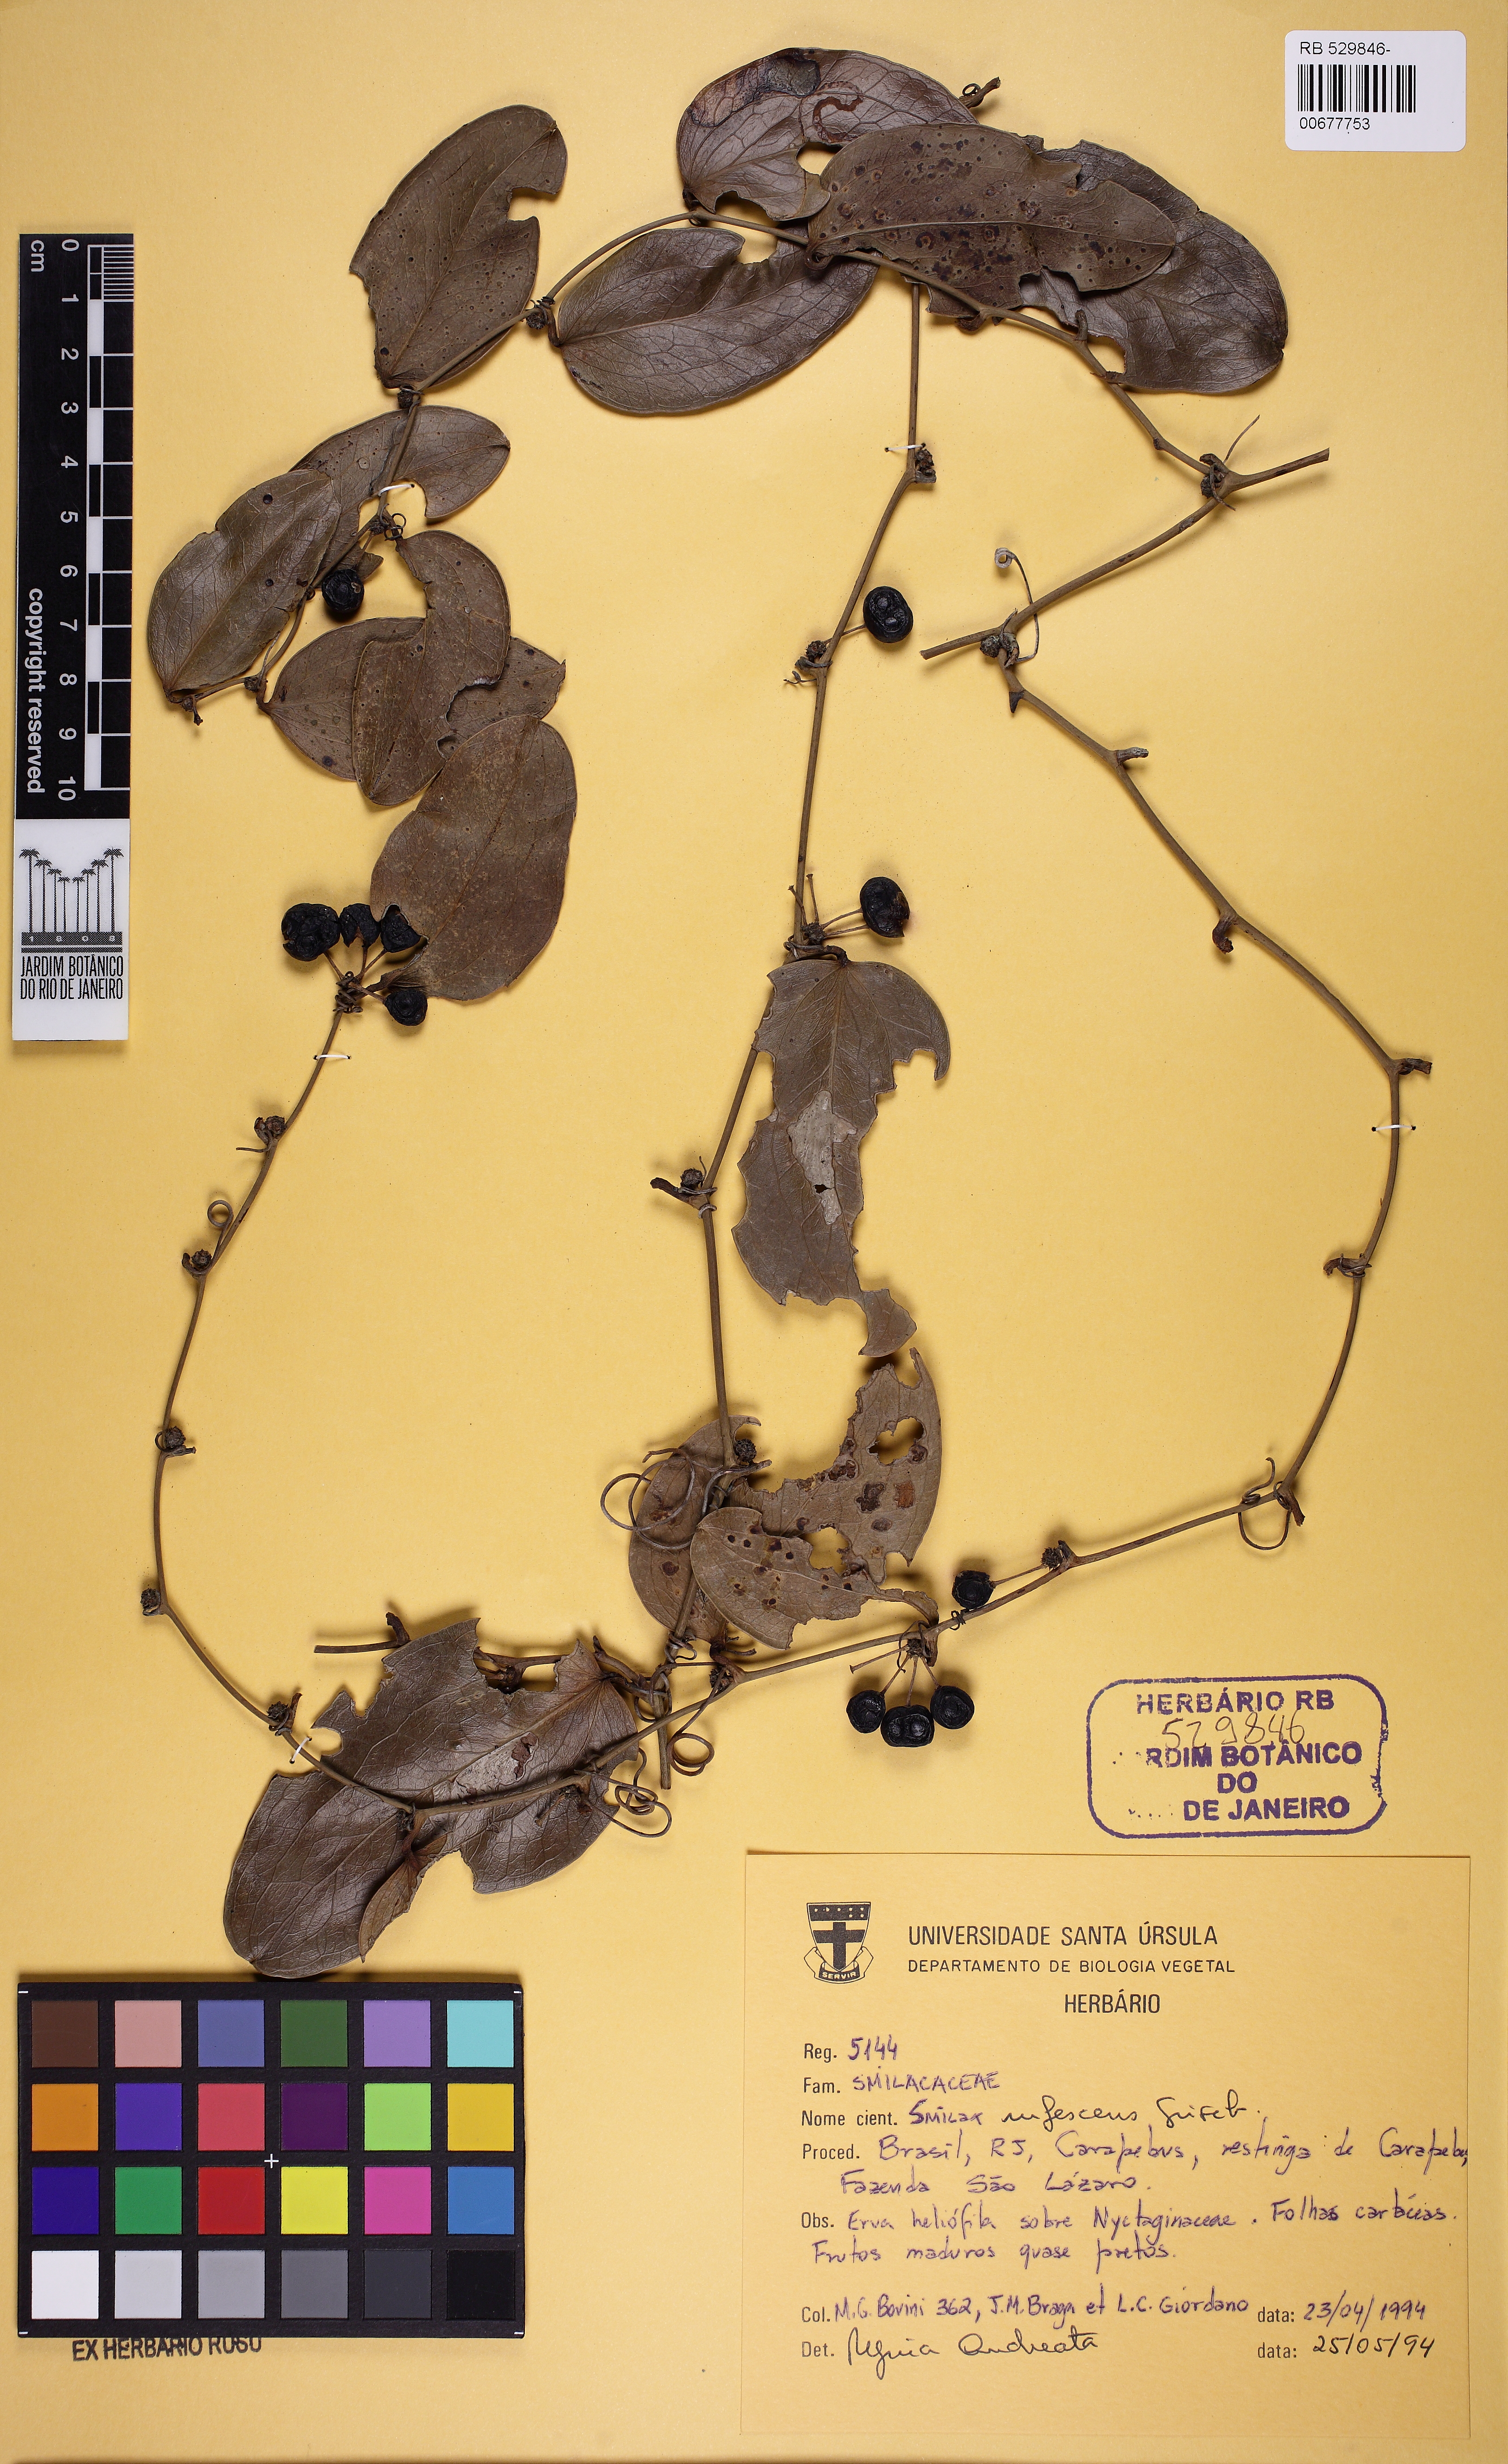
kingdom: Plantae
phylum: Tracheophyta
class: Liliopsida
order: Liliales
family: Smilacaceae
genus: Smilax
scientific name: Smilax rufescens
